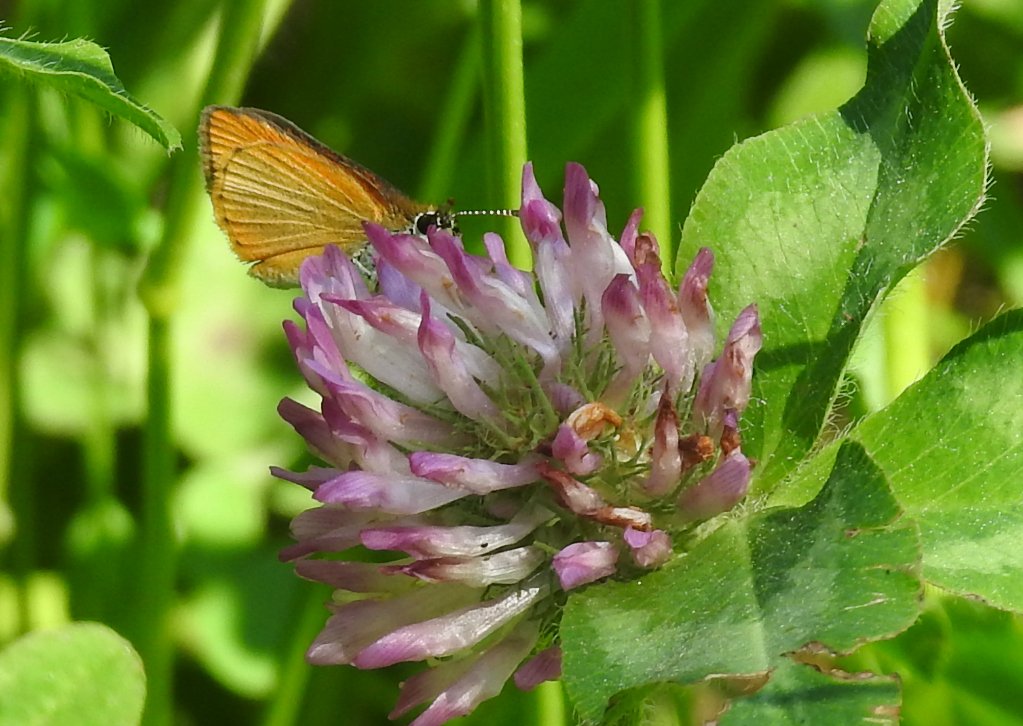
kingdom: Animalia
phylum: Arthropoda
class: Insecta
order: Lepidoptera
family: Hesperiidae
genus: Ancyloxypha
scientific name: Ancyloxypha numitor
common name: Least Skipper
